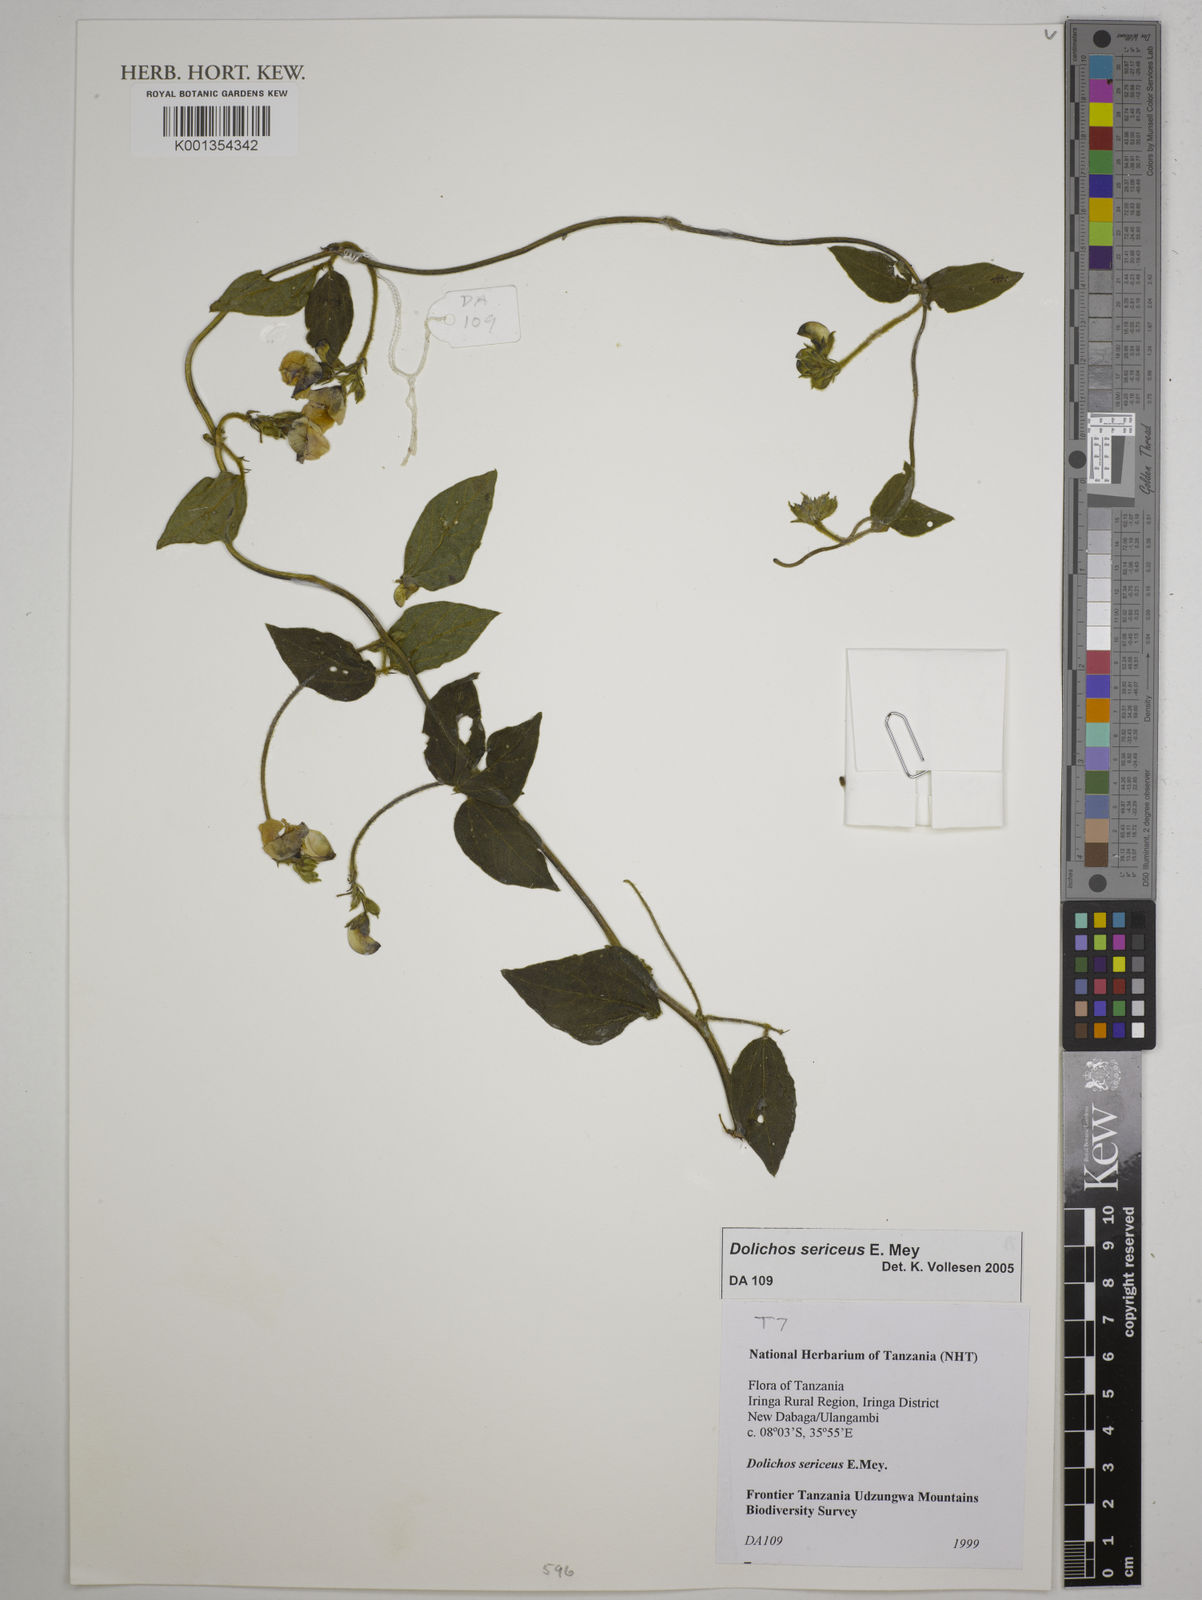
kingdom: Plantae
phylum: Tracheophyta
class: Magnoliopsida
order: Fabales
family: Fabaceae
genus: Dolichos
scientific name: Dolichos sericeus
